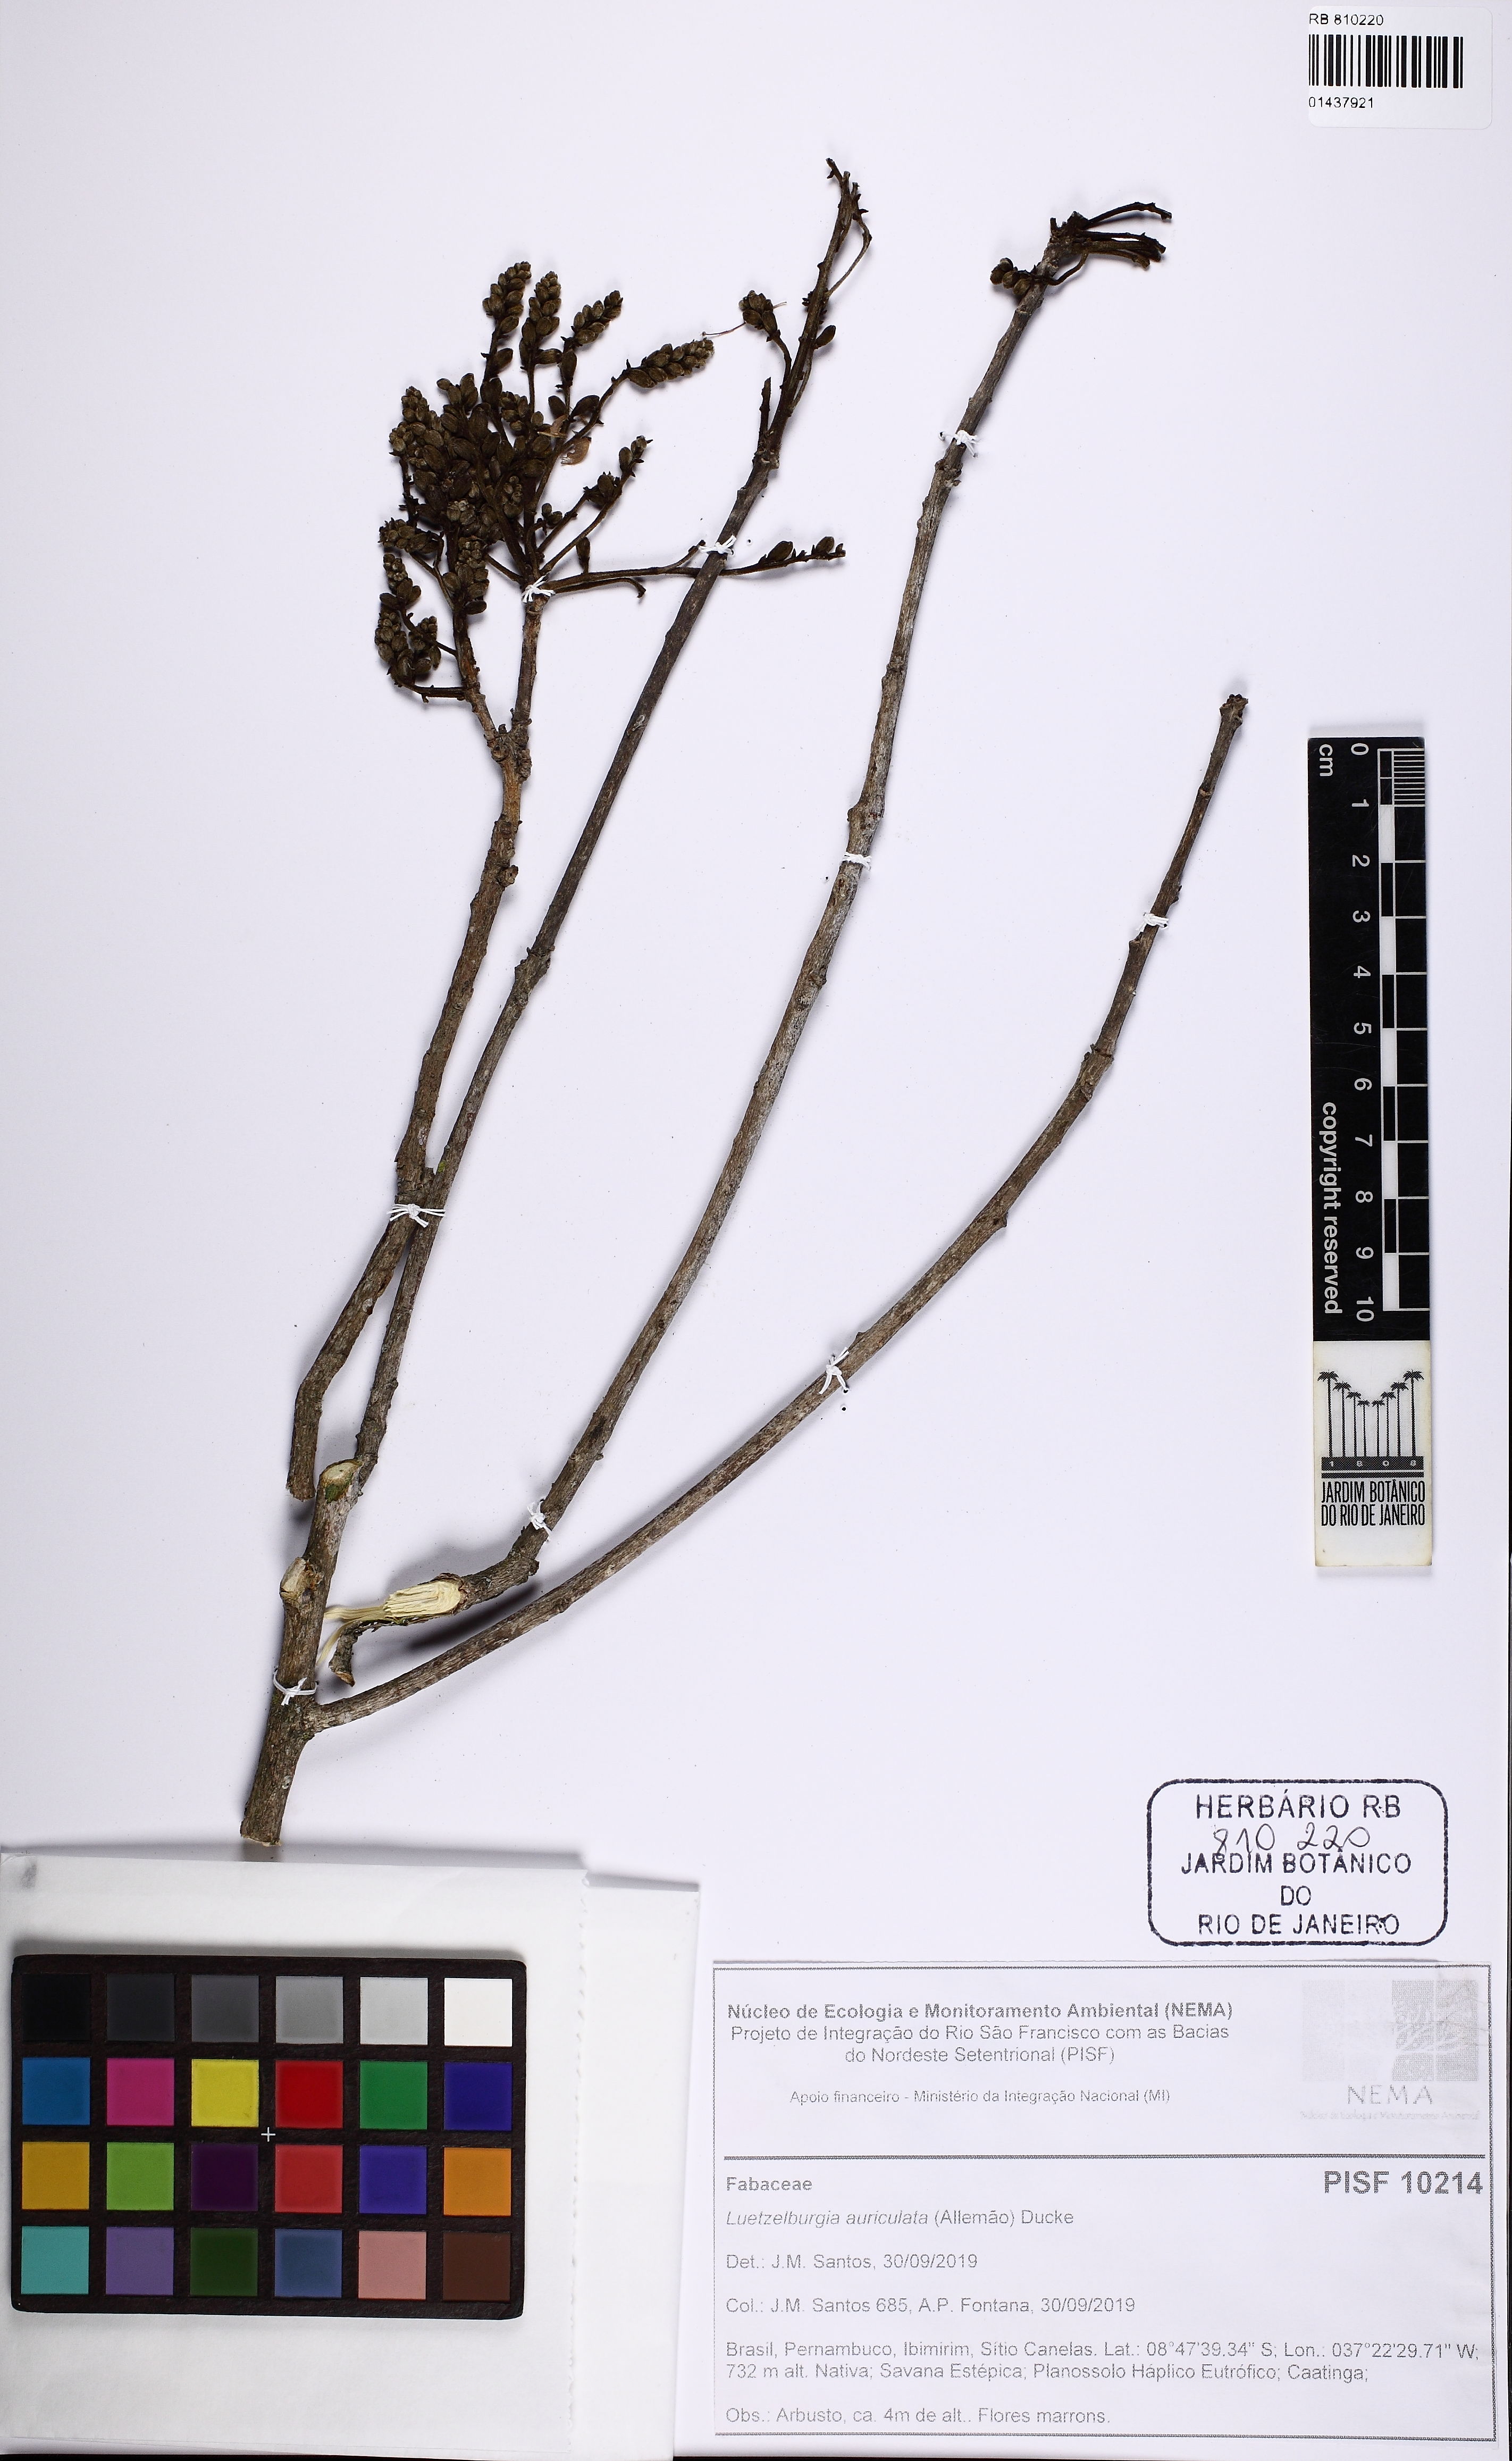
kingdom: Plantae
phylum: Tracheophyta
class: Magnoliopsida
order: Fabales
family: Fabaceae
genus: Luetzelburgia
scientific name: Luetzelburgia auriculata
